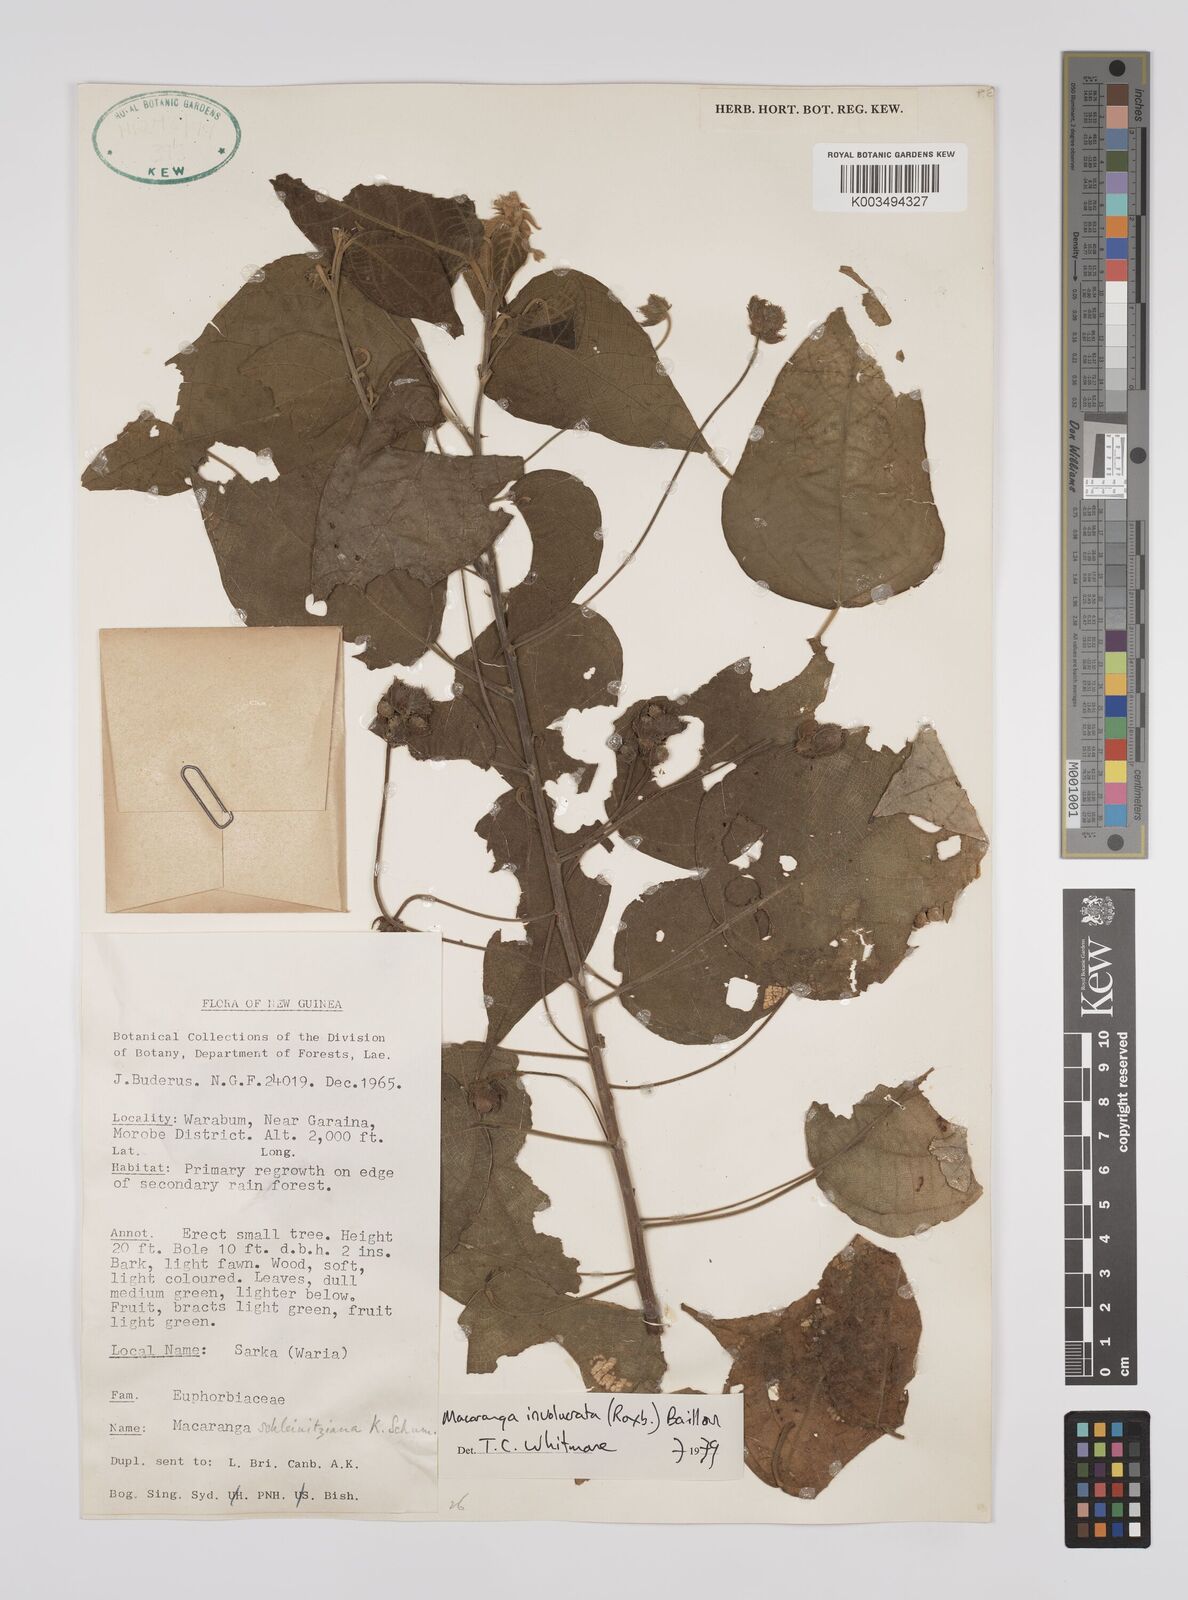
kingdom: Plantae
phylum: Tracheophyta
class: Magnoliopsida
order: Malpighiales
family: Euphorbiaceae
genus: Macaranga
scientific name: Macaranga involucrata
